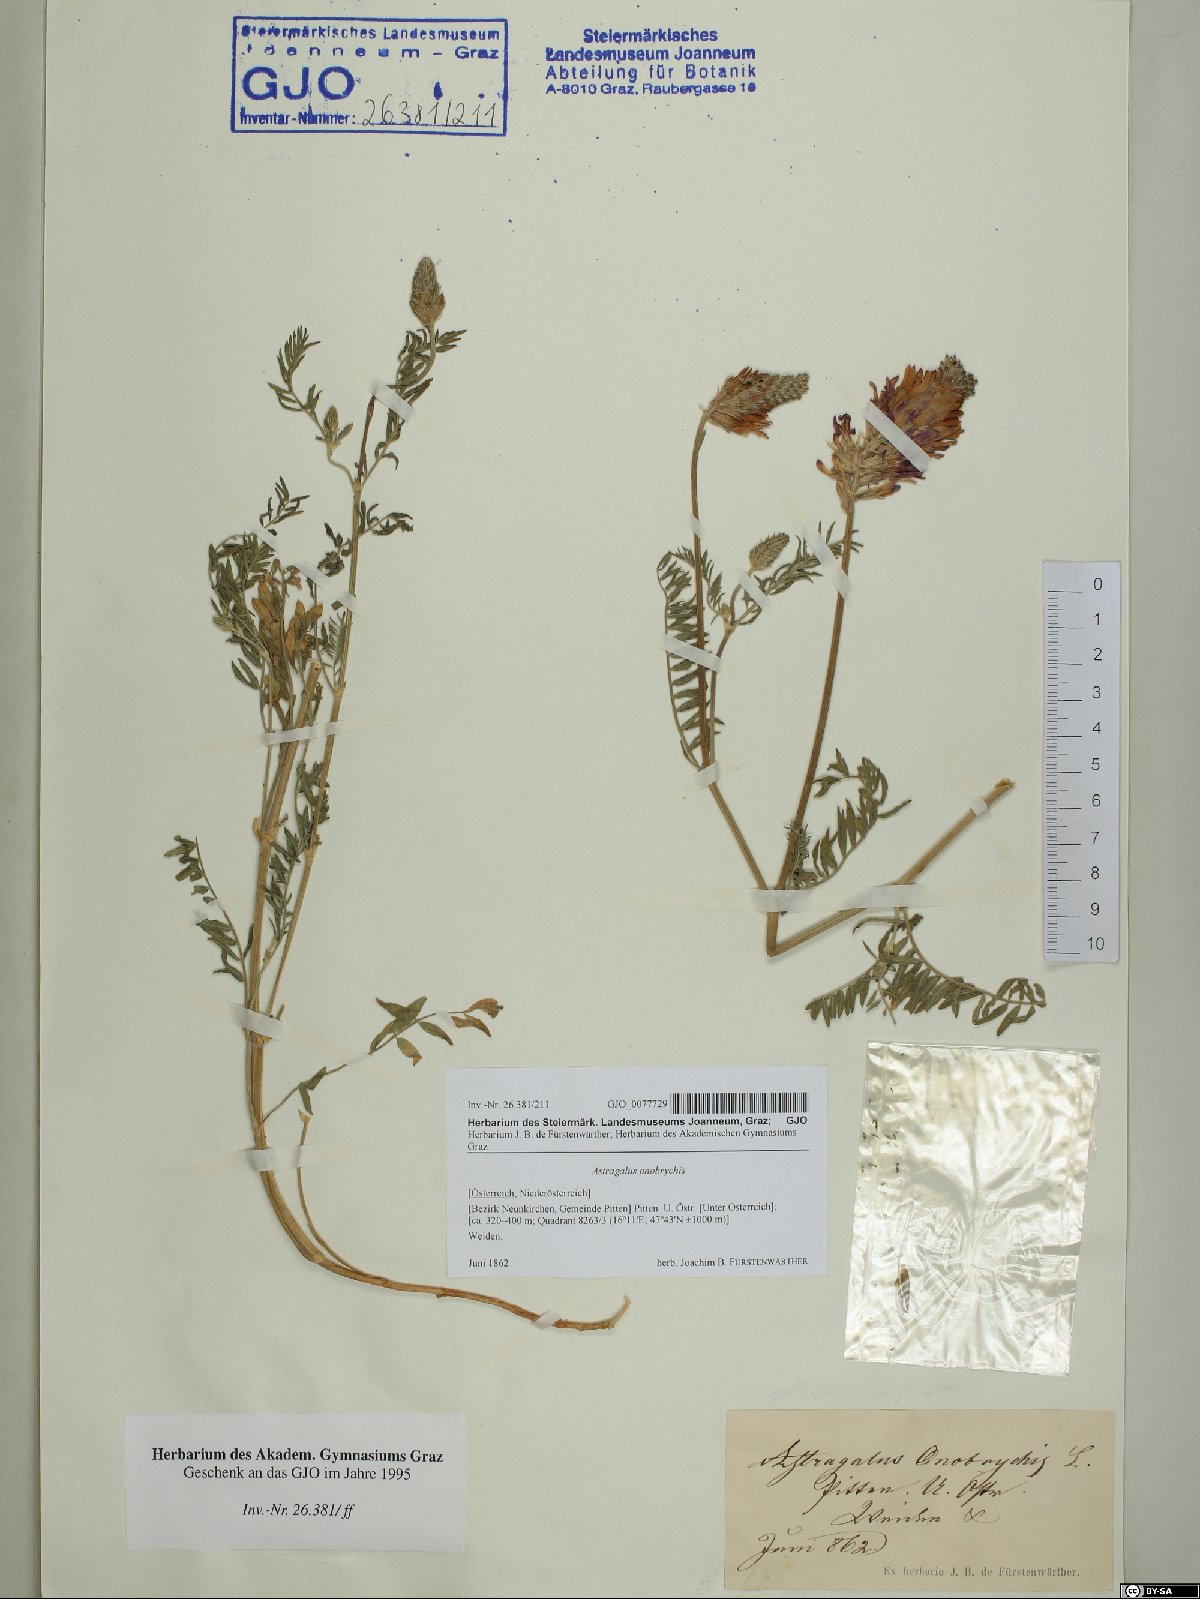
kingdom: Plantae
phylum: Tracheophyta
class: Magnoliopsida
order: Fabales
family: Fabaceae
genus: Astragalus
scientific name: Astragalus onobrychis
